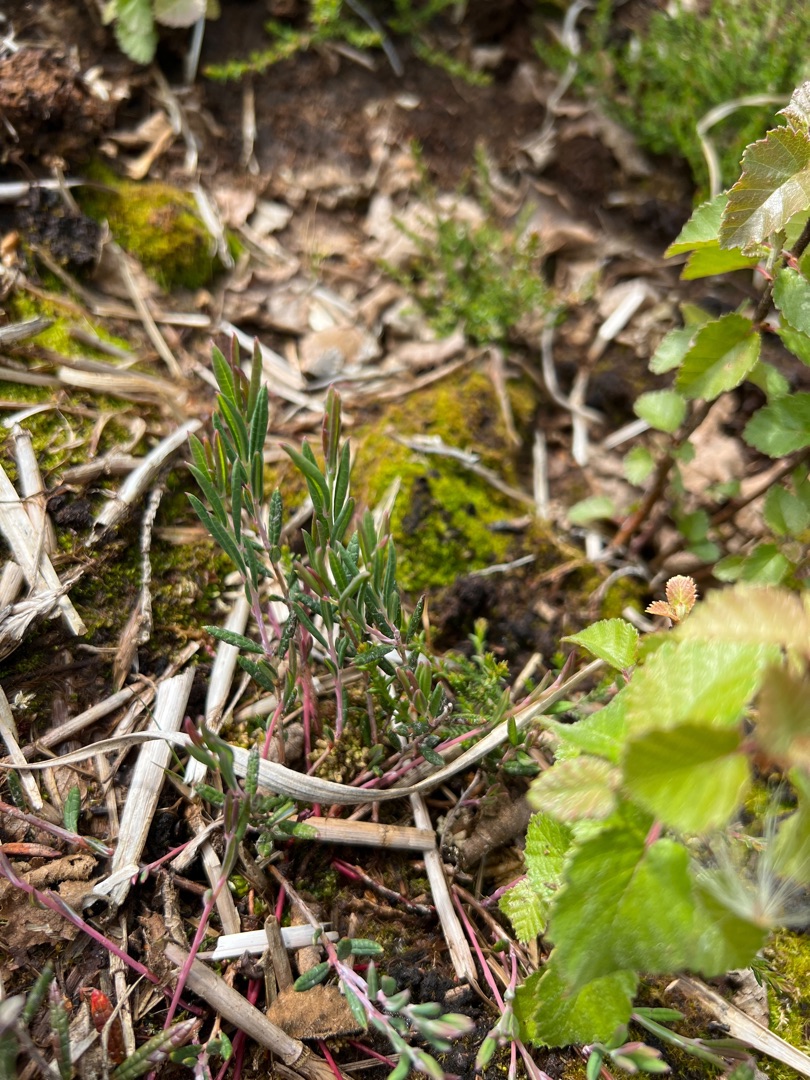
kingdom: Plantae
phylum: Tracheophyta
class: Magnoliopsida
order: Ericales
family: Ericaceae
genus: Andromeda
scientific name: Andromeda polifolia
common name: Rosmarinlyng
